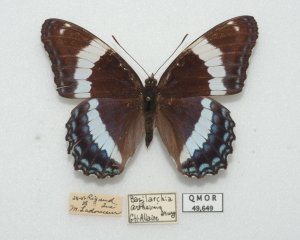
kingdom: Animalia
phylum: Arthropoda
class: Insecta
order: Lepidoptera
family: Nymphalidae
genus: Limenitis
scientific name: Limenitis arthemis
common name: Red-spotted Admiral
